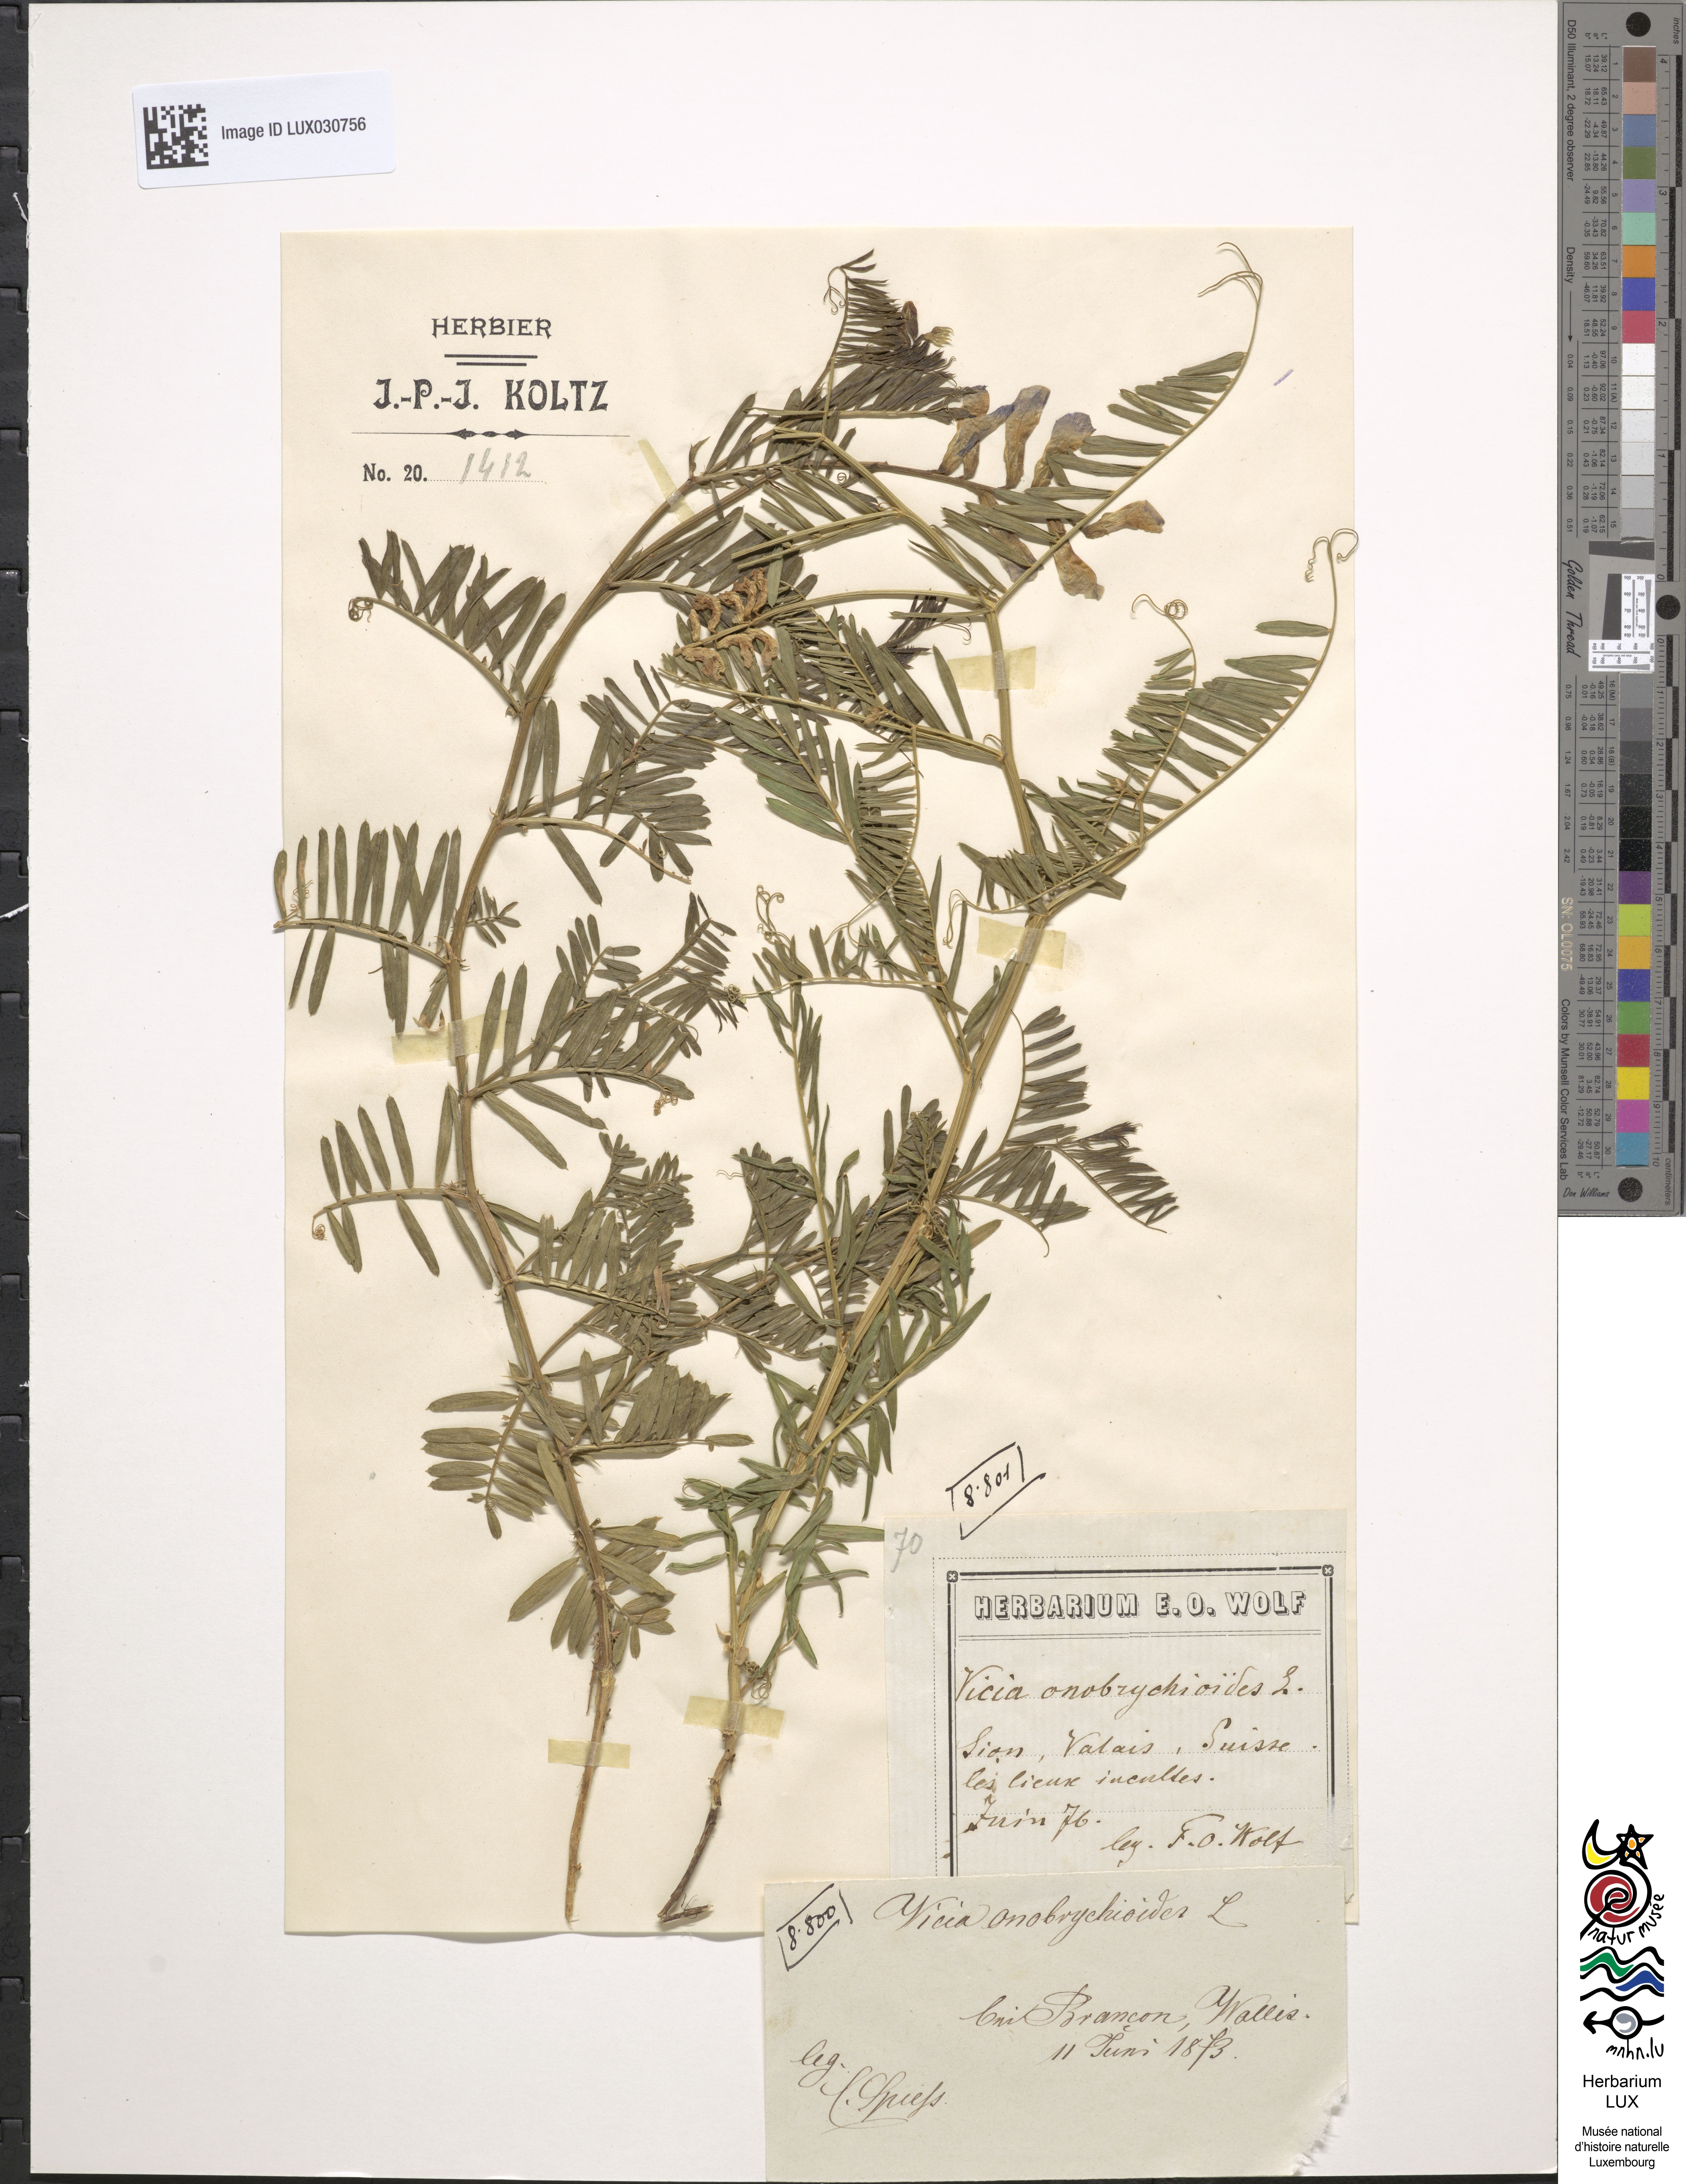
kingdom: Plantae
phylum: Tracheophyta
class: Magnoliopsida
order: Fabales
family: Fabaceae
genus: Vicia
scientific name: Vicia onobrychioides
